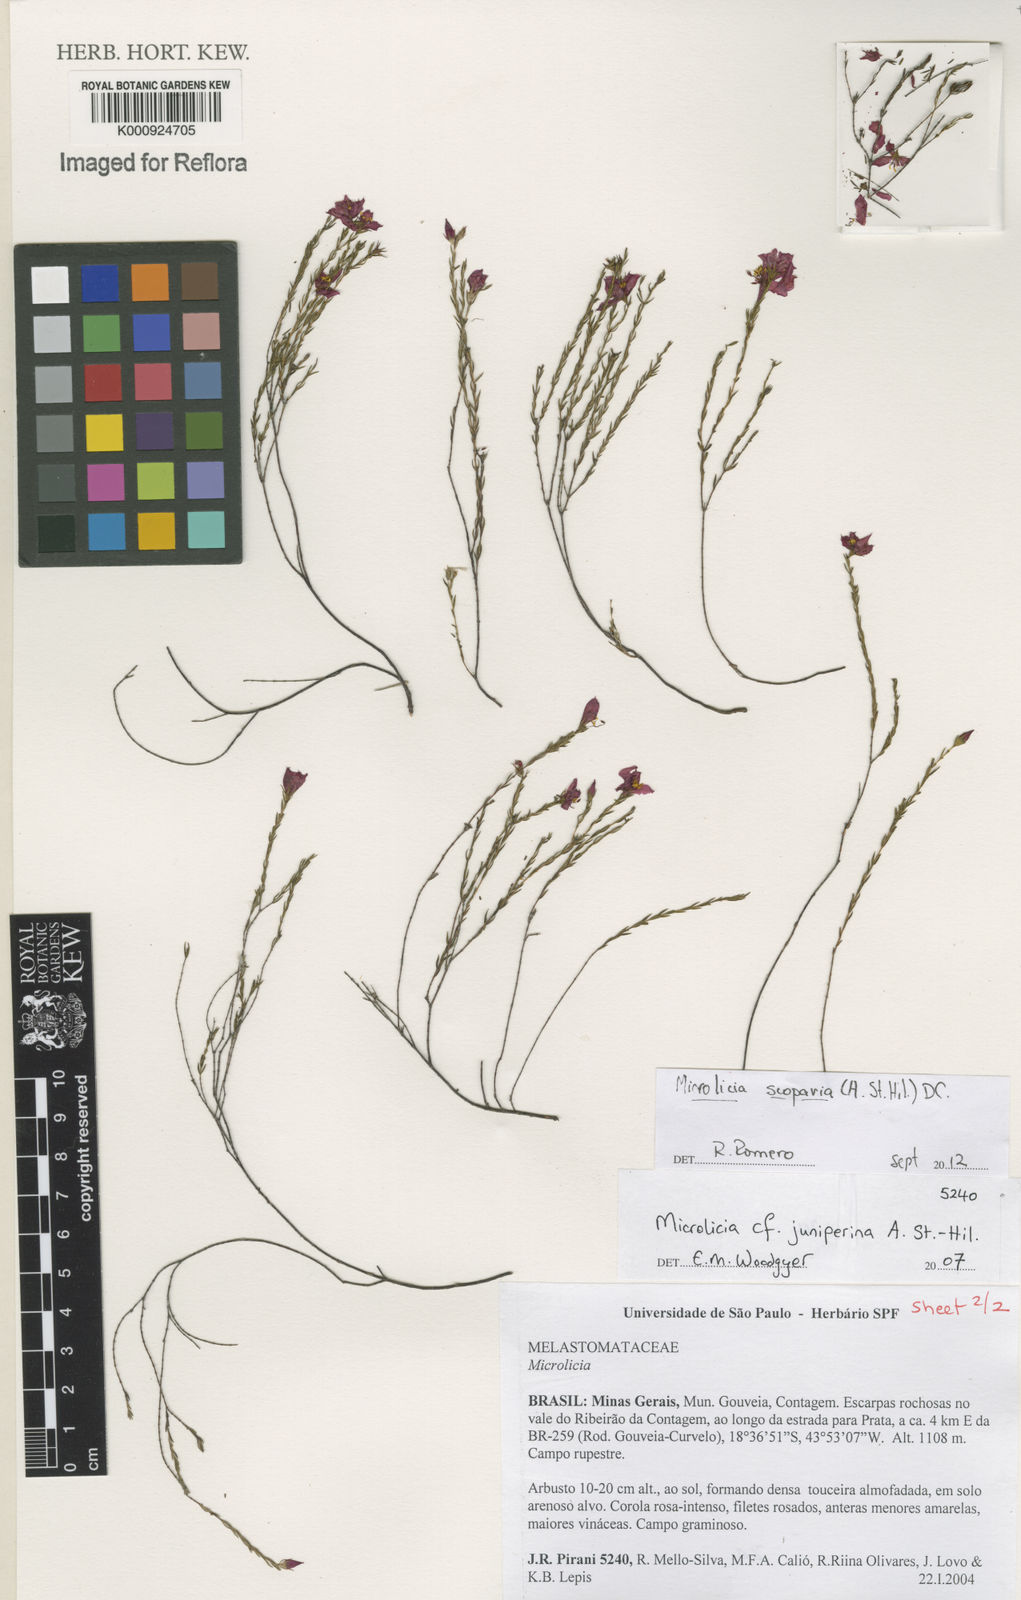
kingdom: Plantae
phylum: Tracheophyta
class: Magnoliopsida
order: Myrtales
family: Melastomataceae
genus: Microlicia
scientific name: Microlicia scoparia
